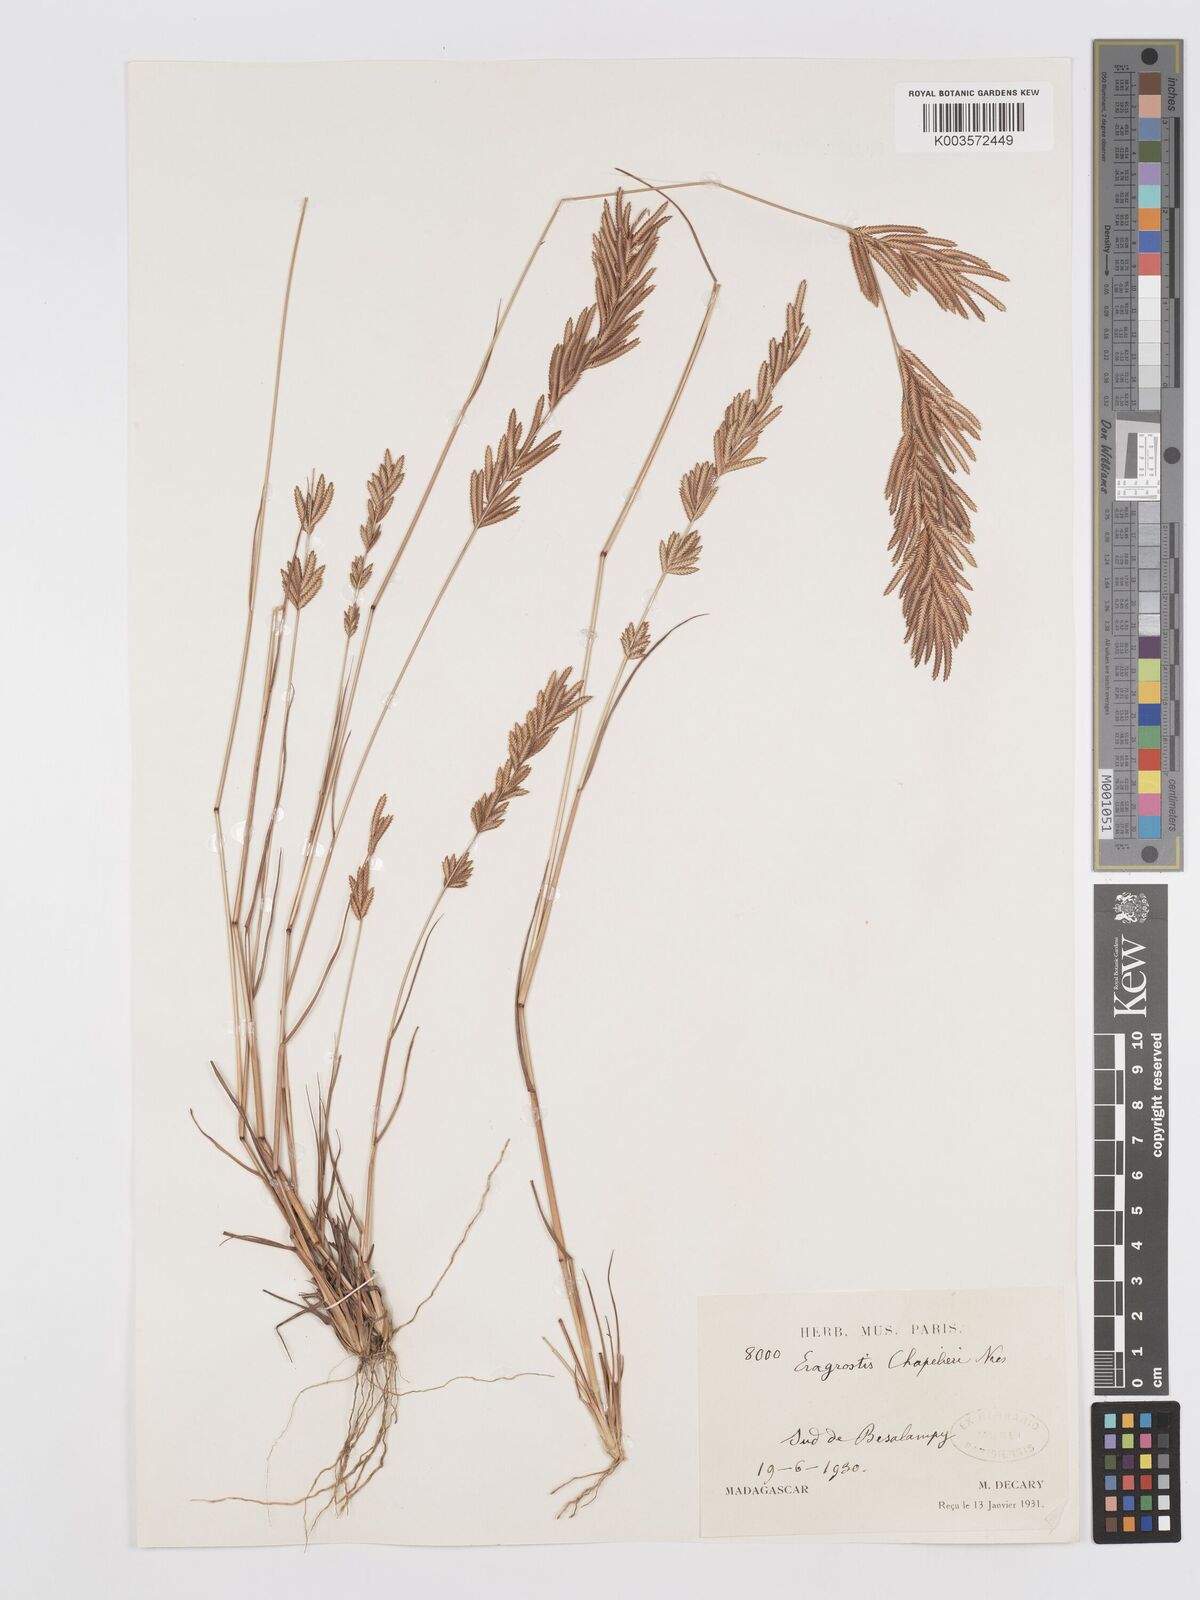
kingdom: Plantae
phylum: Tracheophyta
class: Liliopsida
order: Poales
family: Poaceae
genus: Eragrostis
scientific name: Eragrostis chapelieri
